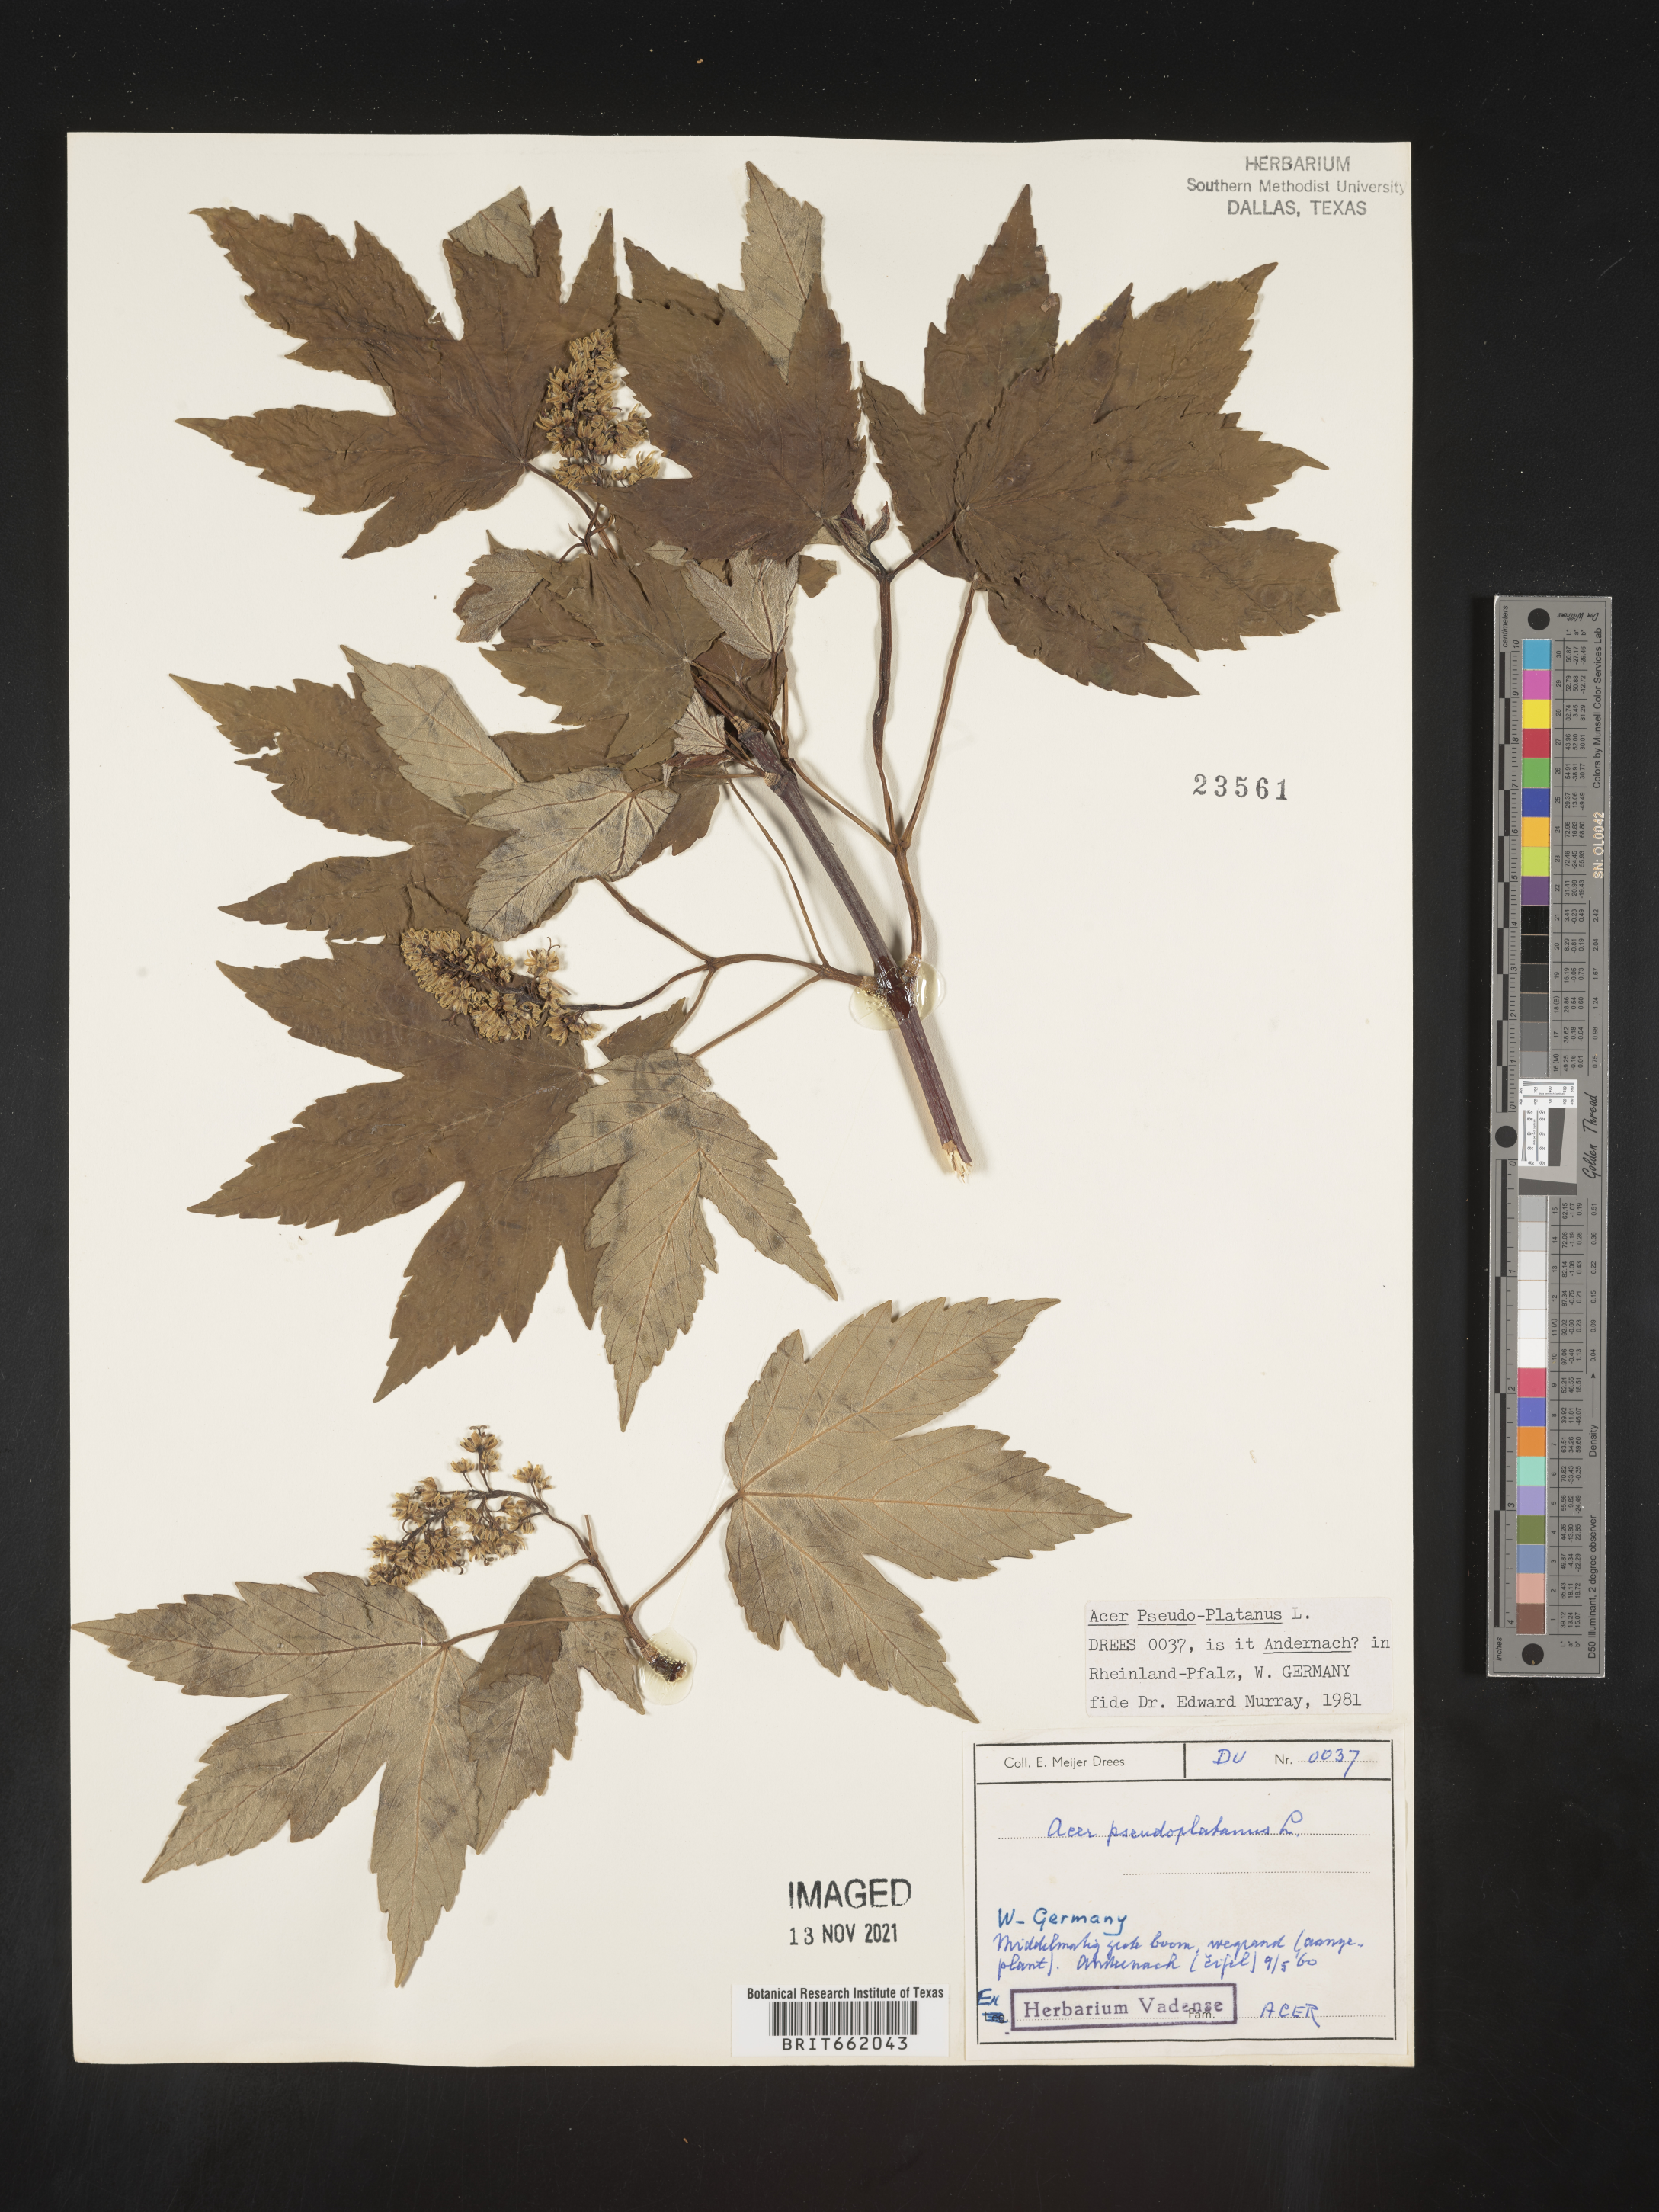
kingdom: Plantae
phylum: Tracheophyta
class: Magnoliopsida
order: Sapindales
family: Sapindaceae
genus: Acer
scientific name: Acer
